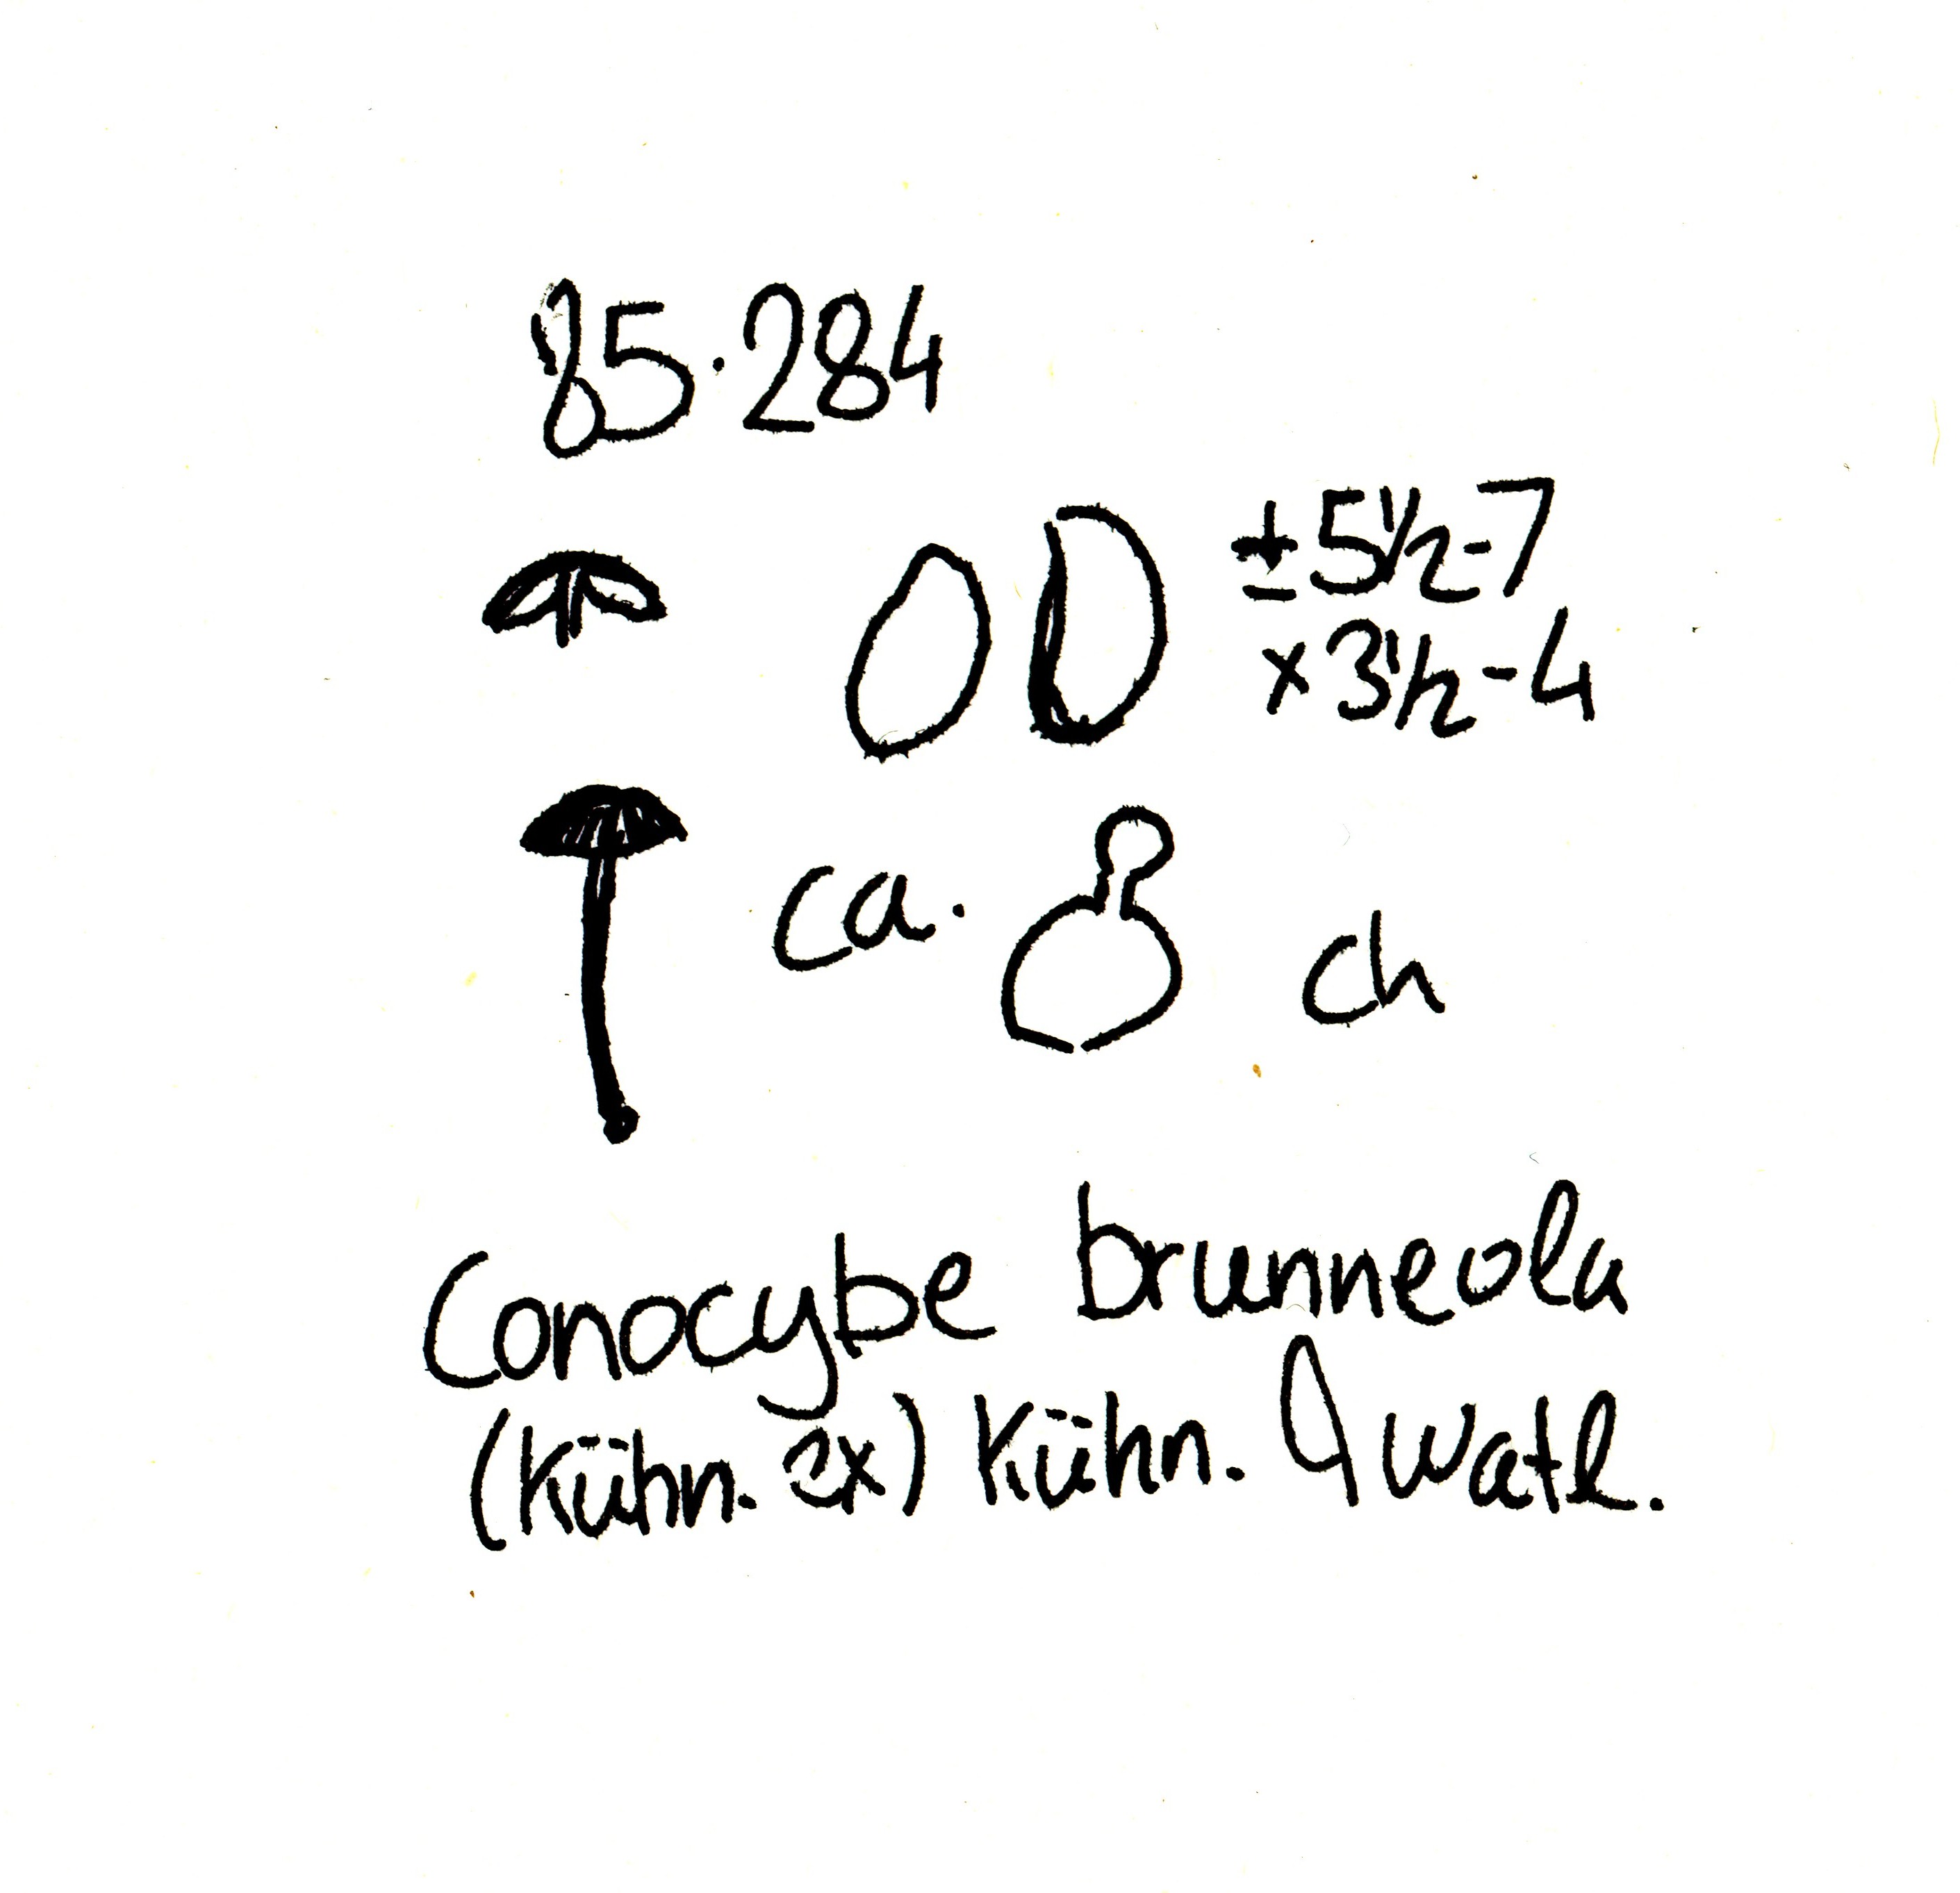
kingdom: Fungi
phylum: Basidiomycota
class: Agaricomycetes
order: Agaricales
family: Bolbitiaceae
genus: Conocybe
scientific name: Conocybe brunnea
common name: slør-dansehat
